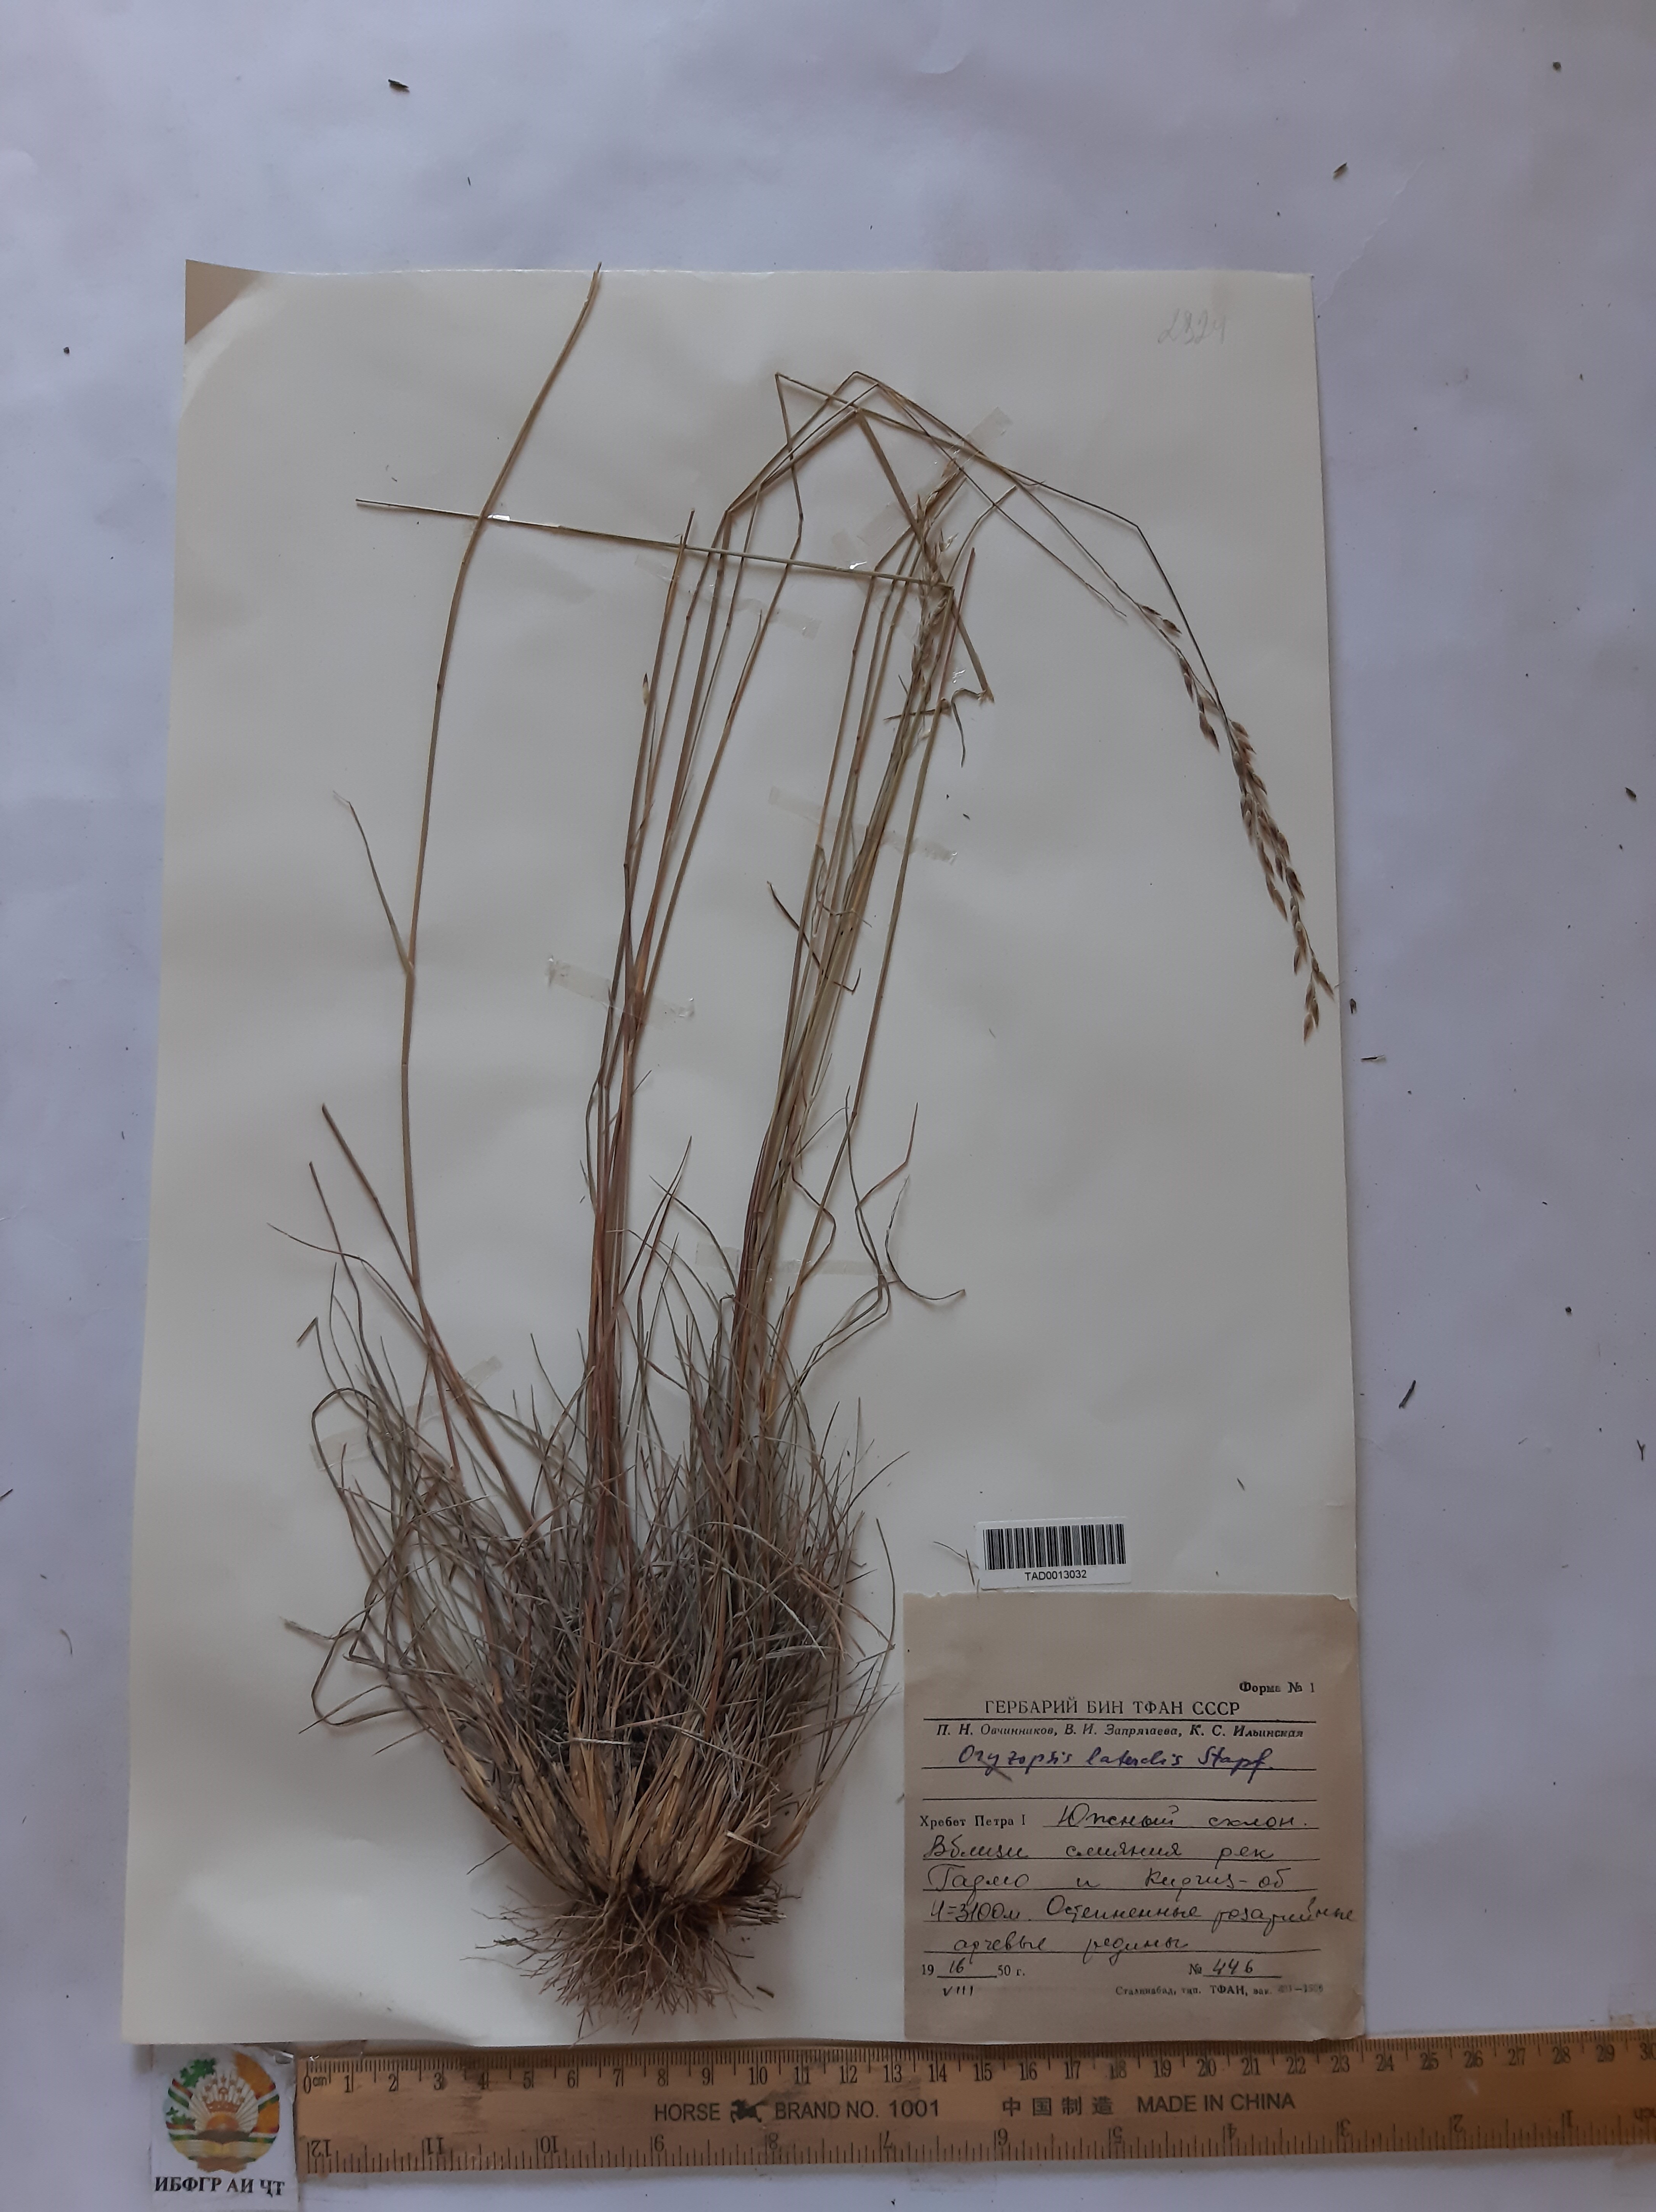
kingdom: Plantae
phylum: Tracheophyta
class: Liliopsida
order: Poales
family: Poaceae
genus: Piptatherum
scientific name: Piptatherum laterale
